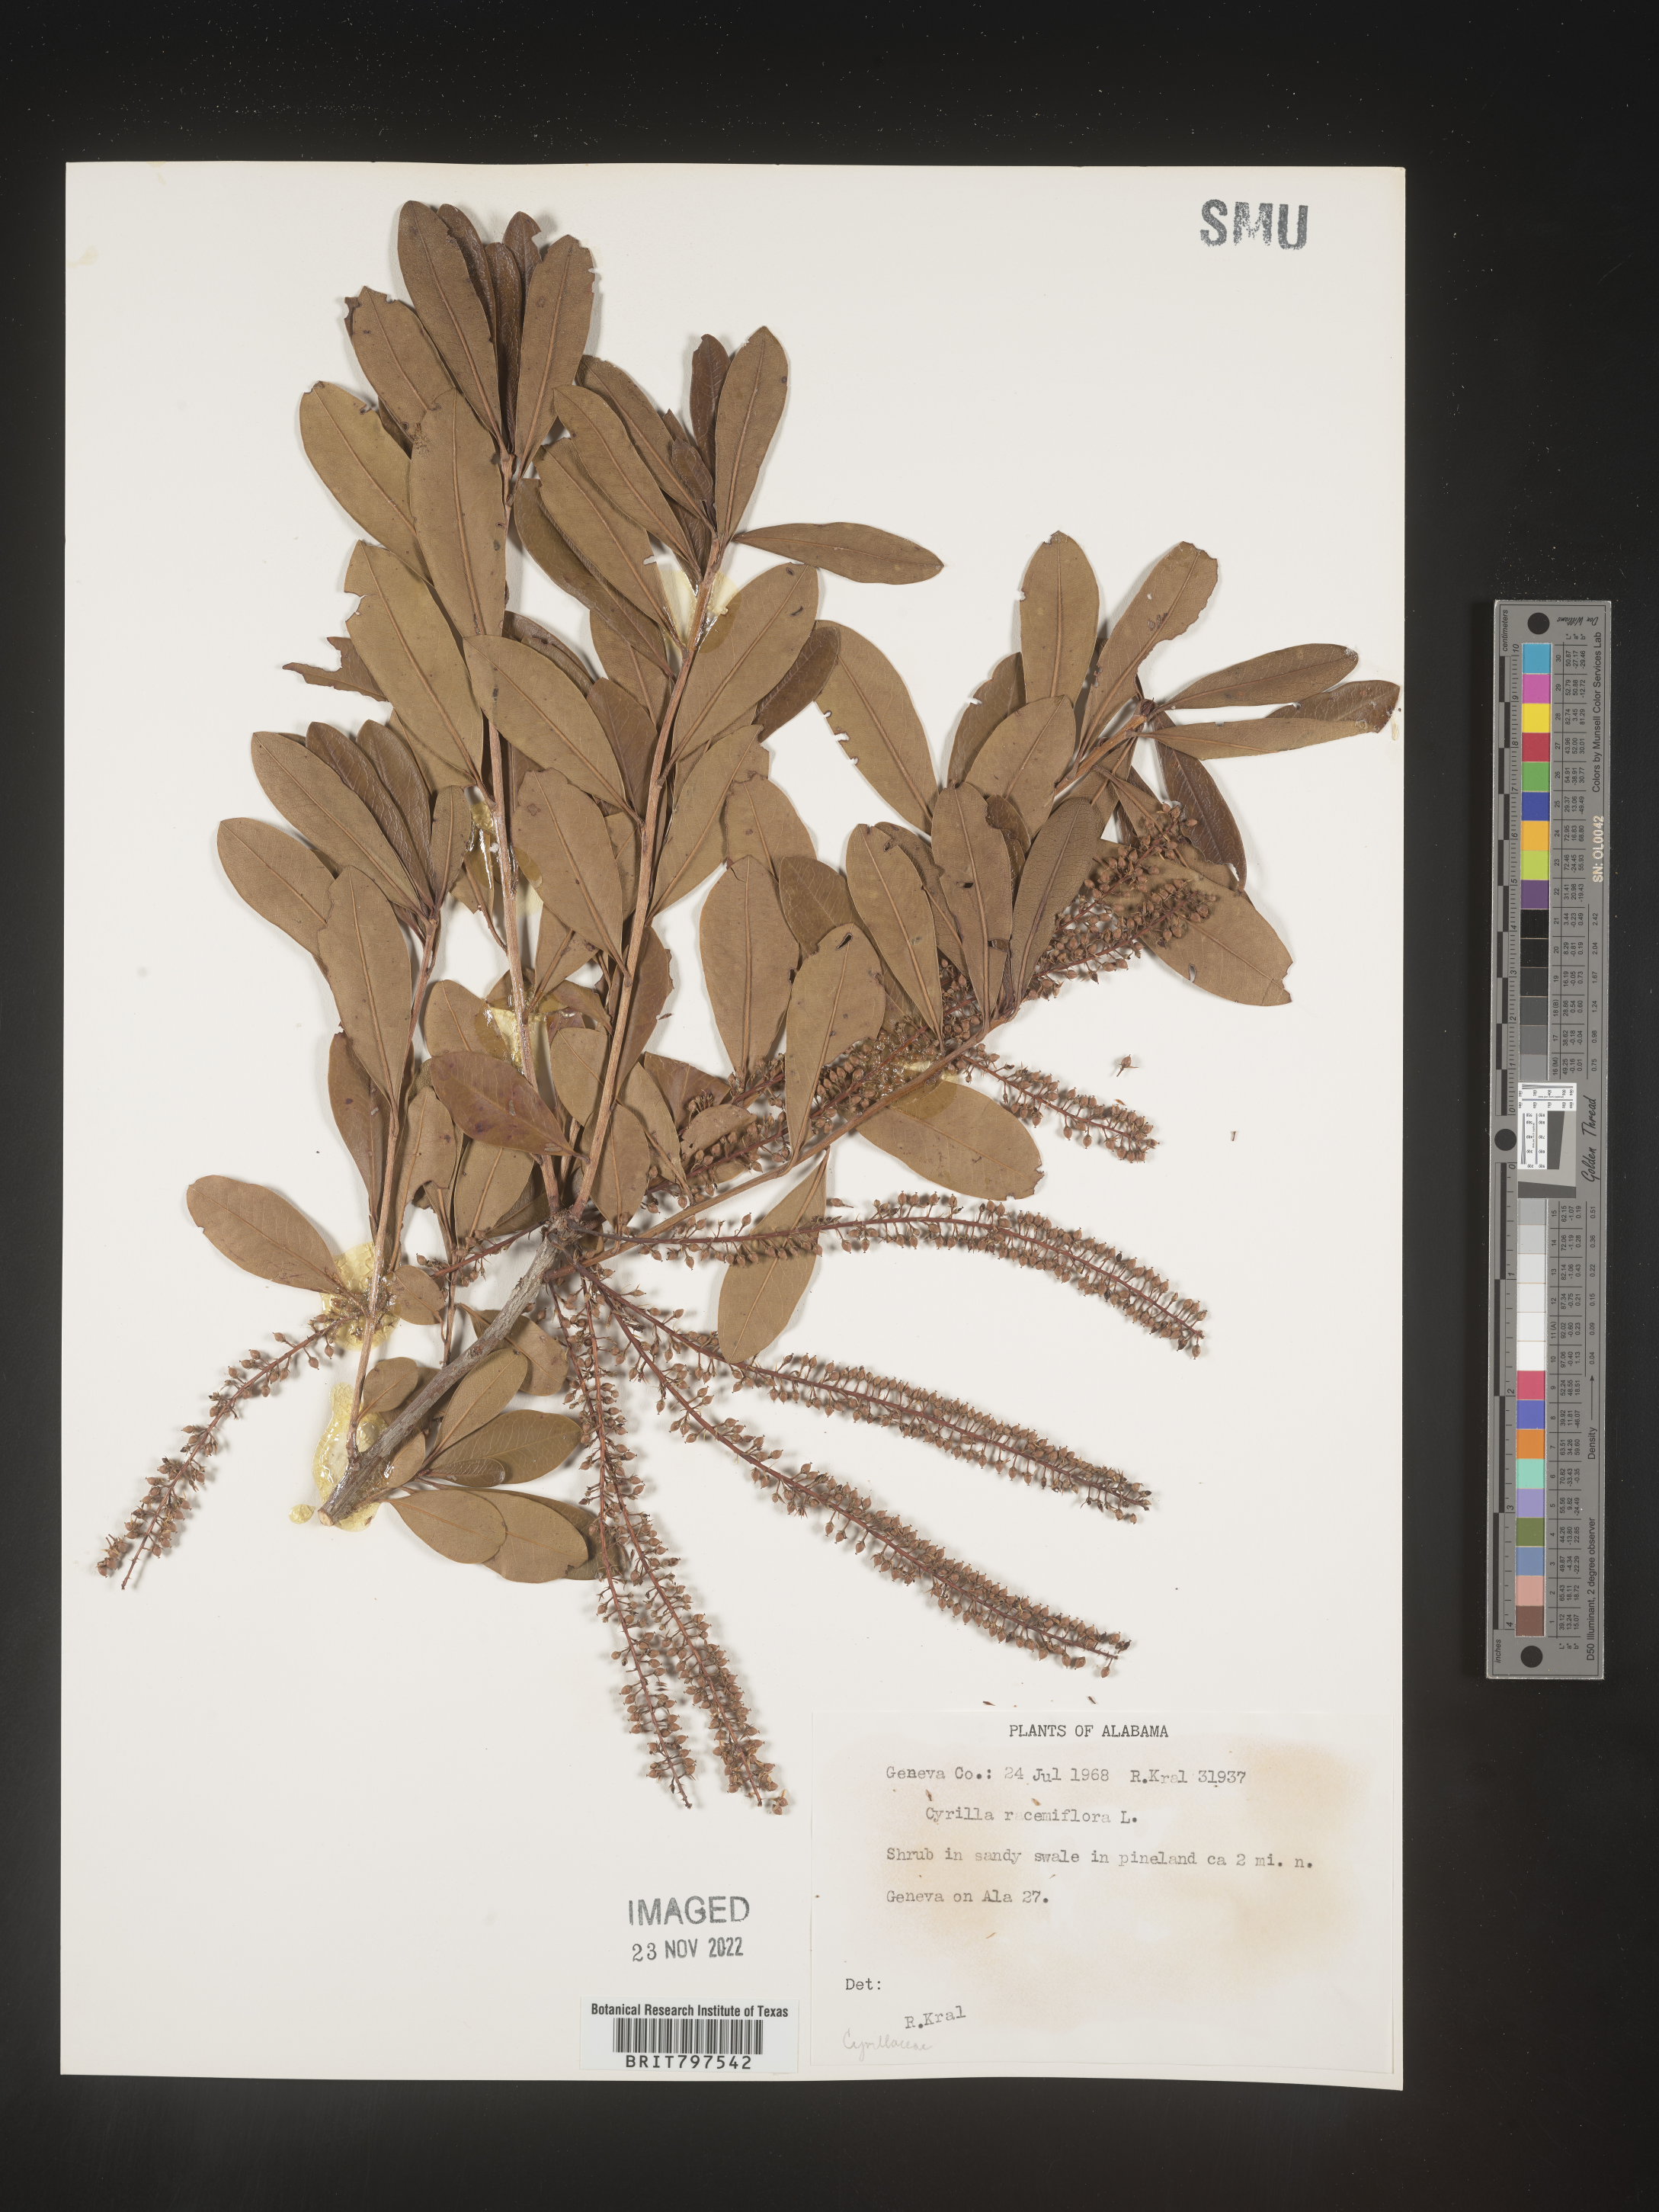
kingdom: Plantae
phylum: Tracheophyta
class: Magnoliopsida
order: Ericales
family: Cyrillaceae
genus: Cyrilla
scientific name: Cyrilla racemiflora
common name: Black titi
